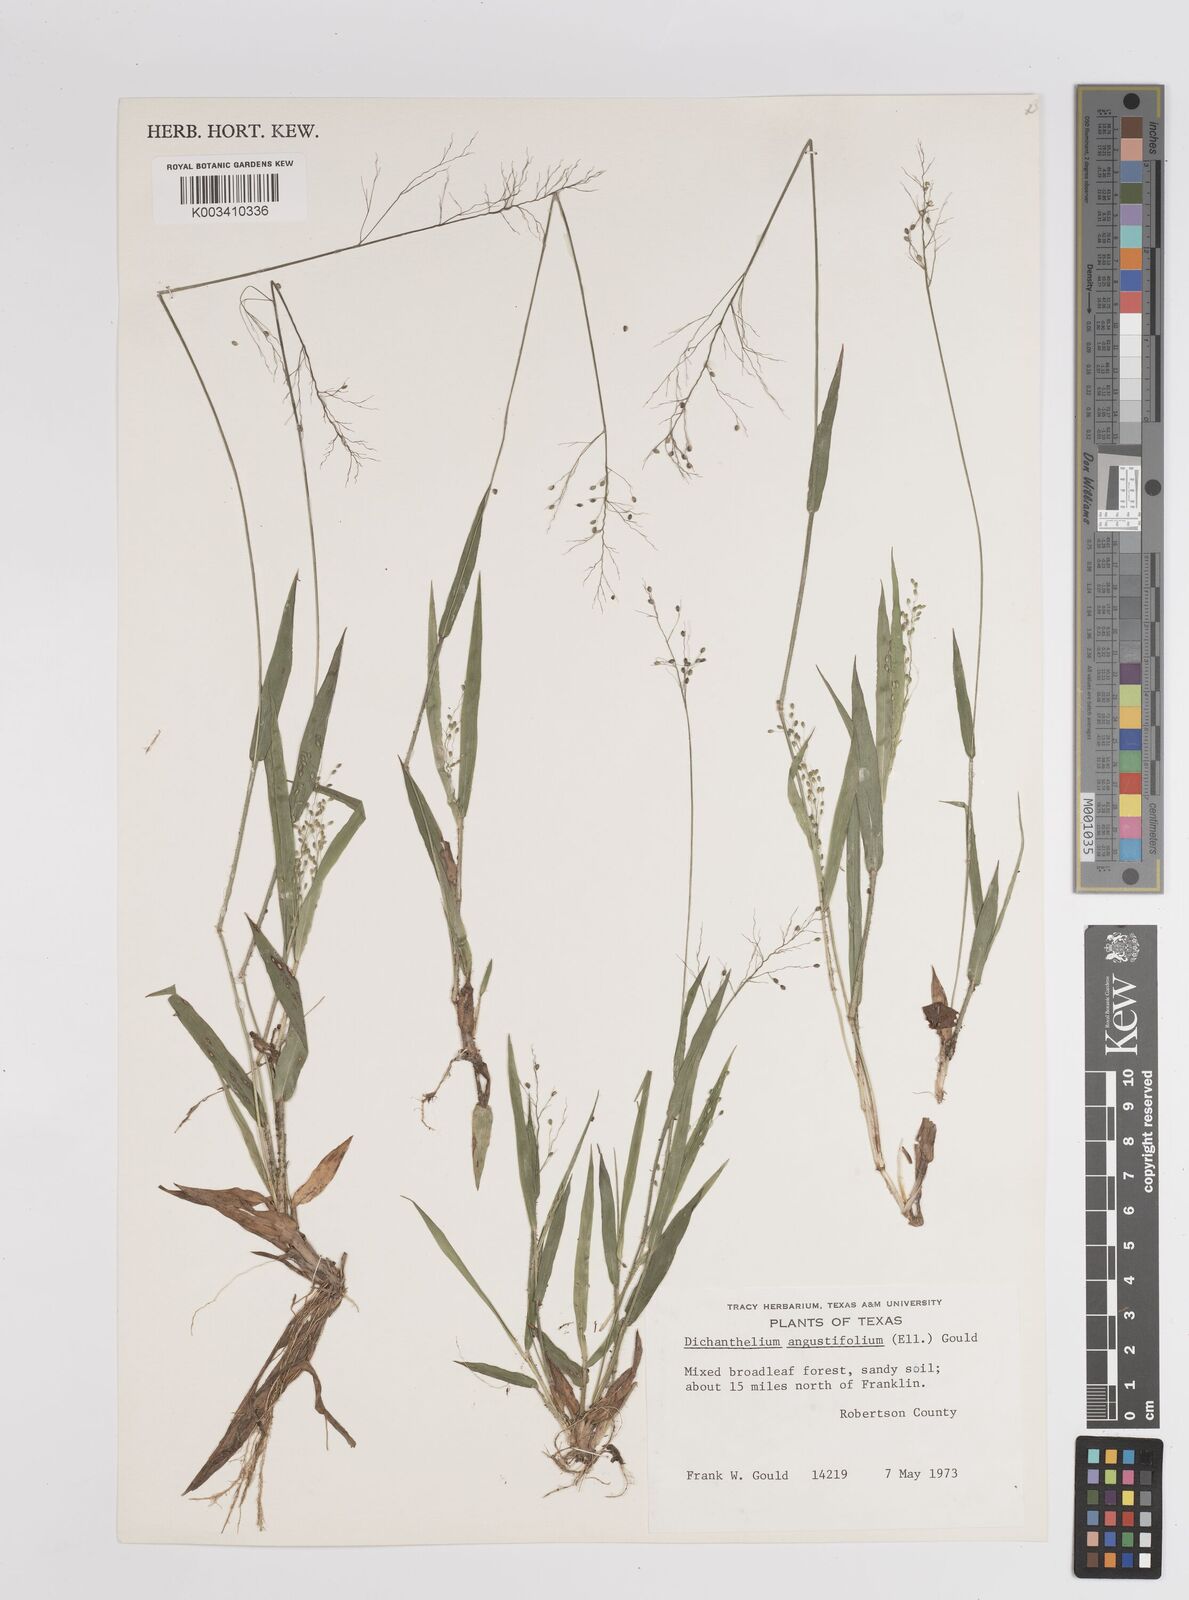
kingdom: Plantae
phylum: Tracheophyta
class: Liliopsida
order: Poales
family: Poaceae
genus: Dichanthelium
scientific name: Dichanthelium angustifolium
